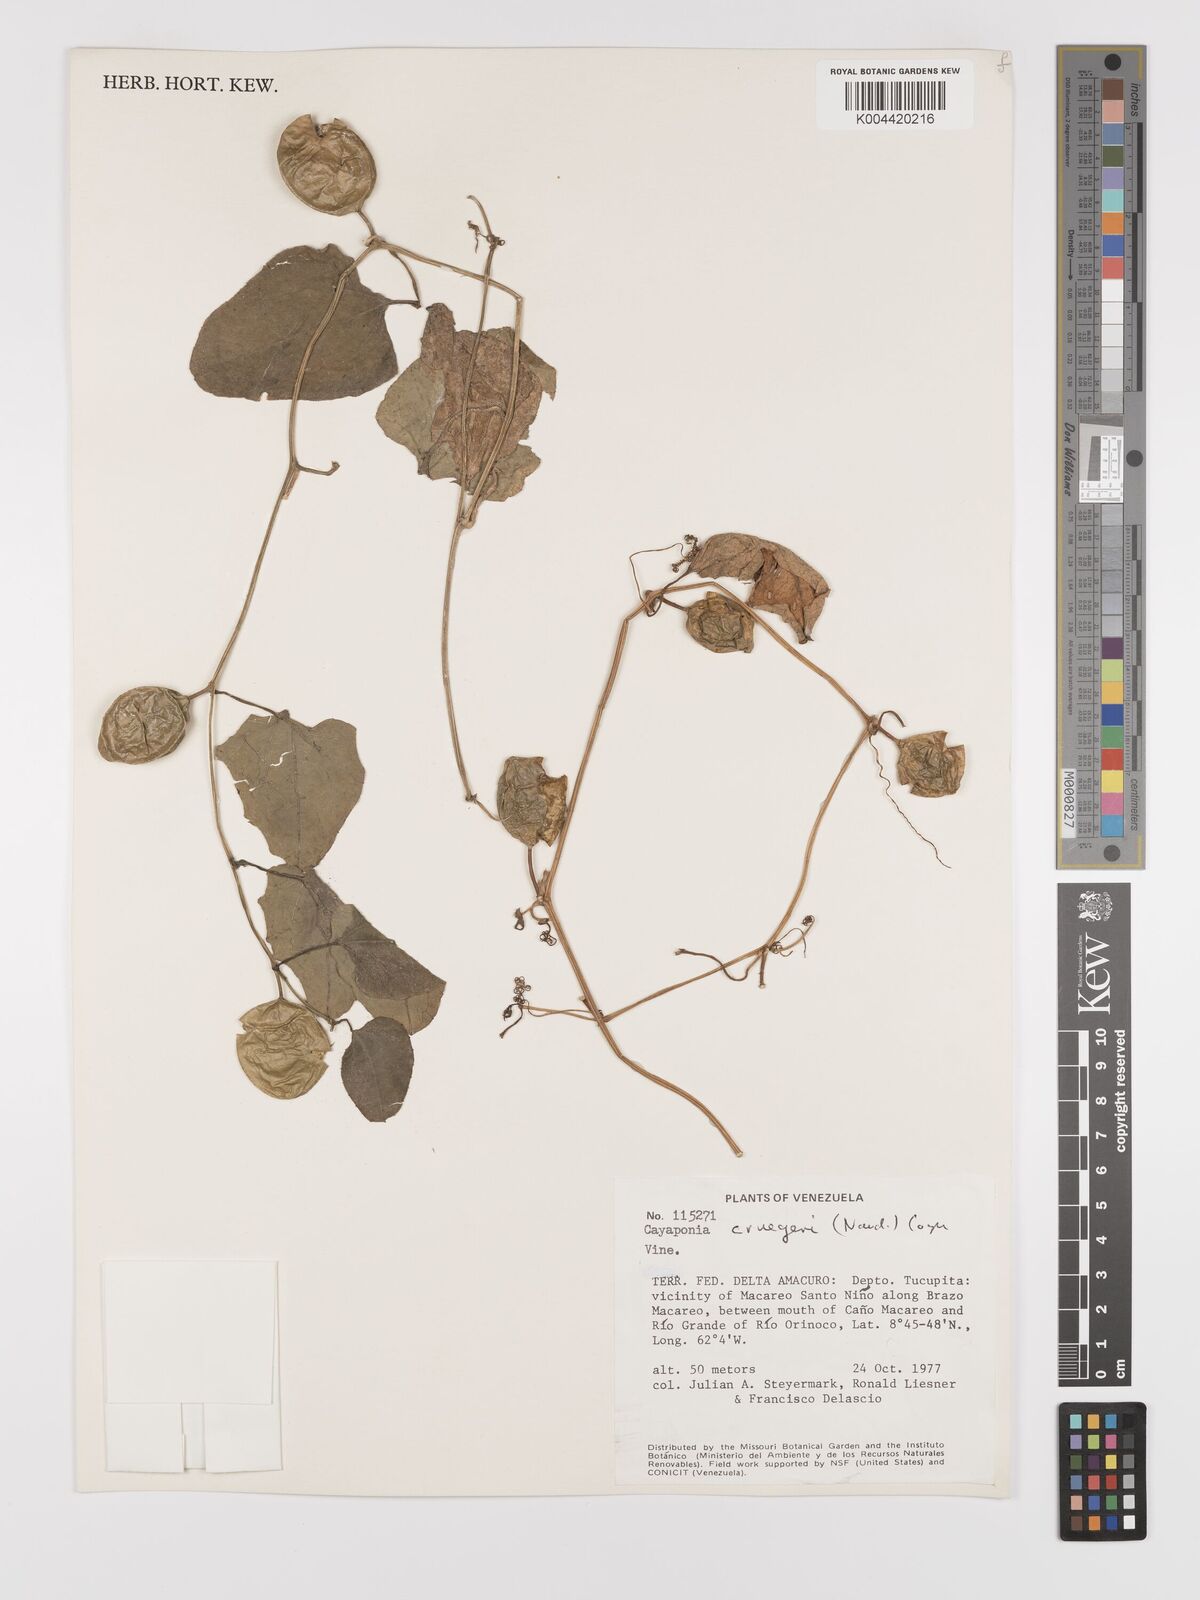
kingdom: Plantae
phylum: Tracheophyta
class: Magnoliopsida
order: Cucurbitales
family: Cucurbitaceae
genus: Cayaponia
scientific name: Cayaponia cruegeri
